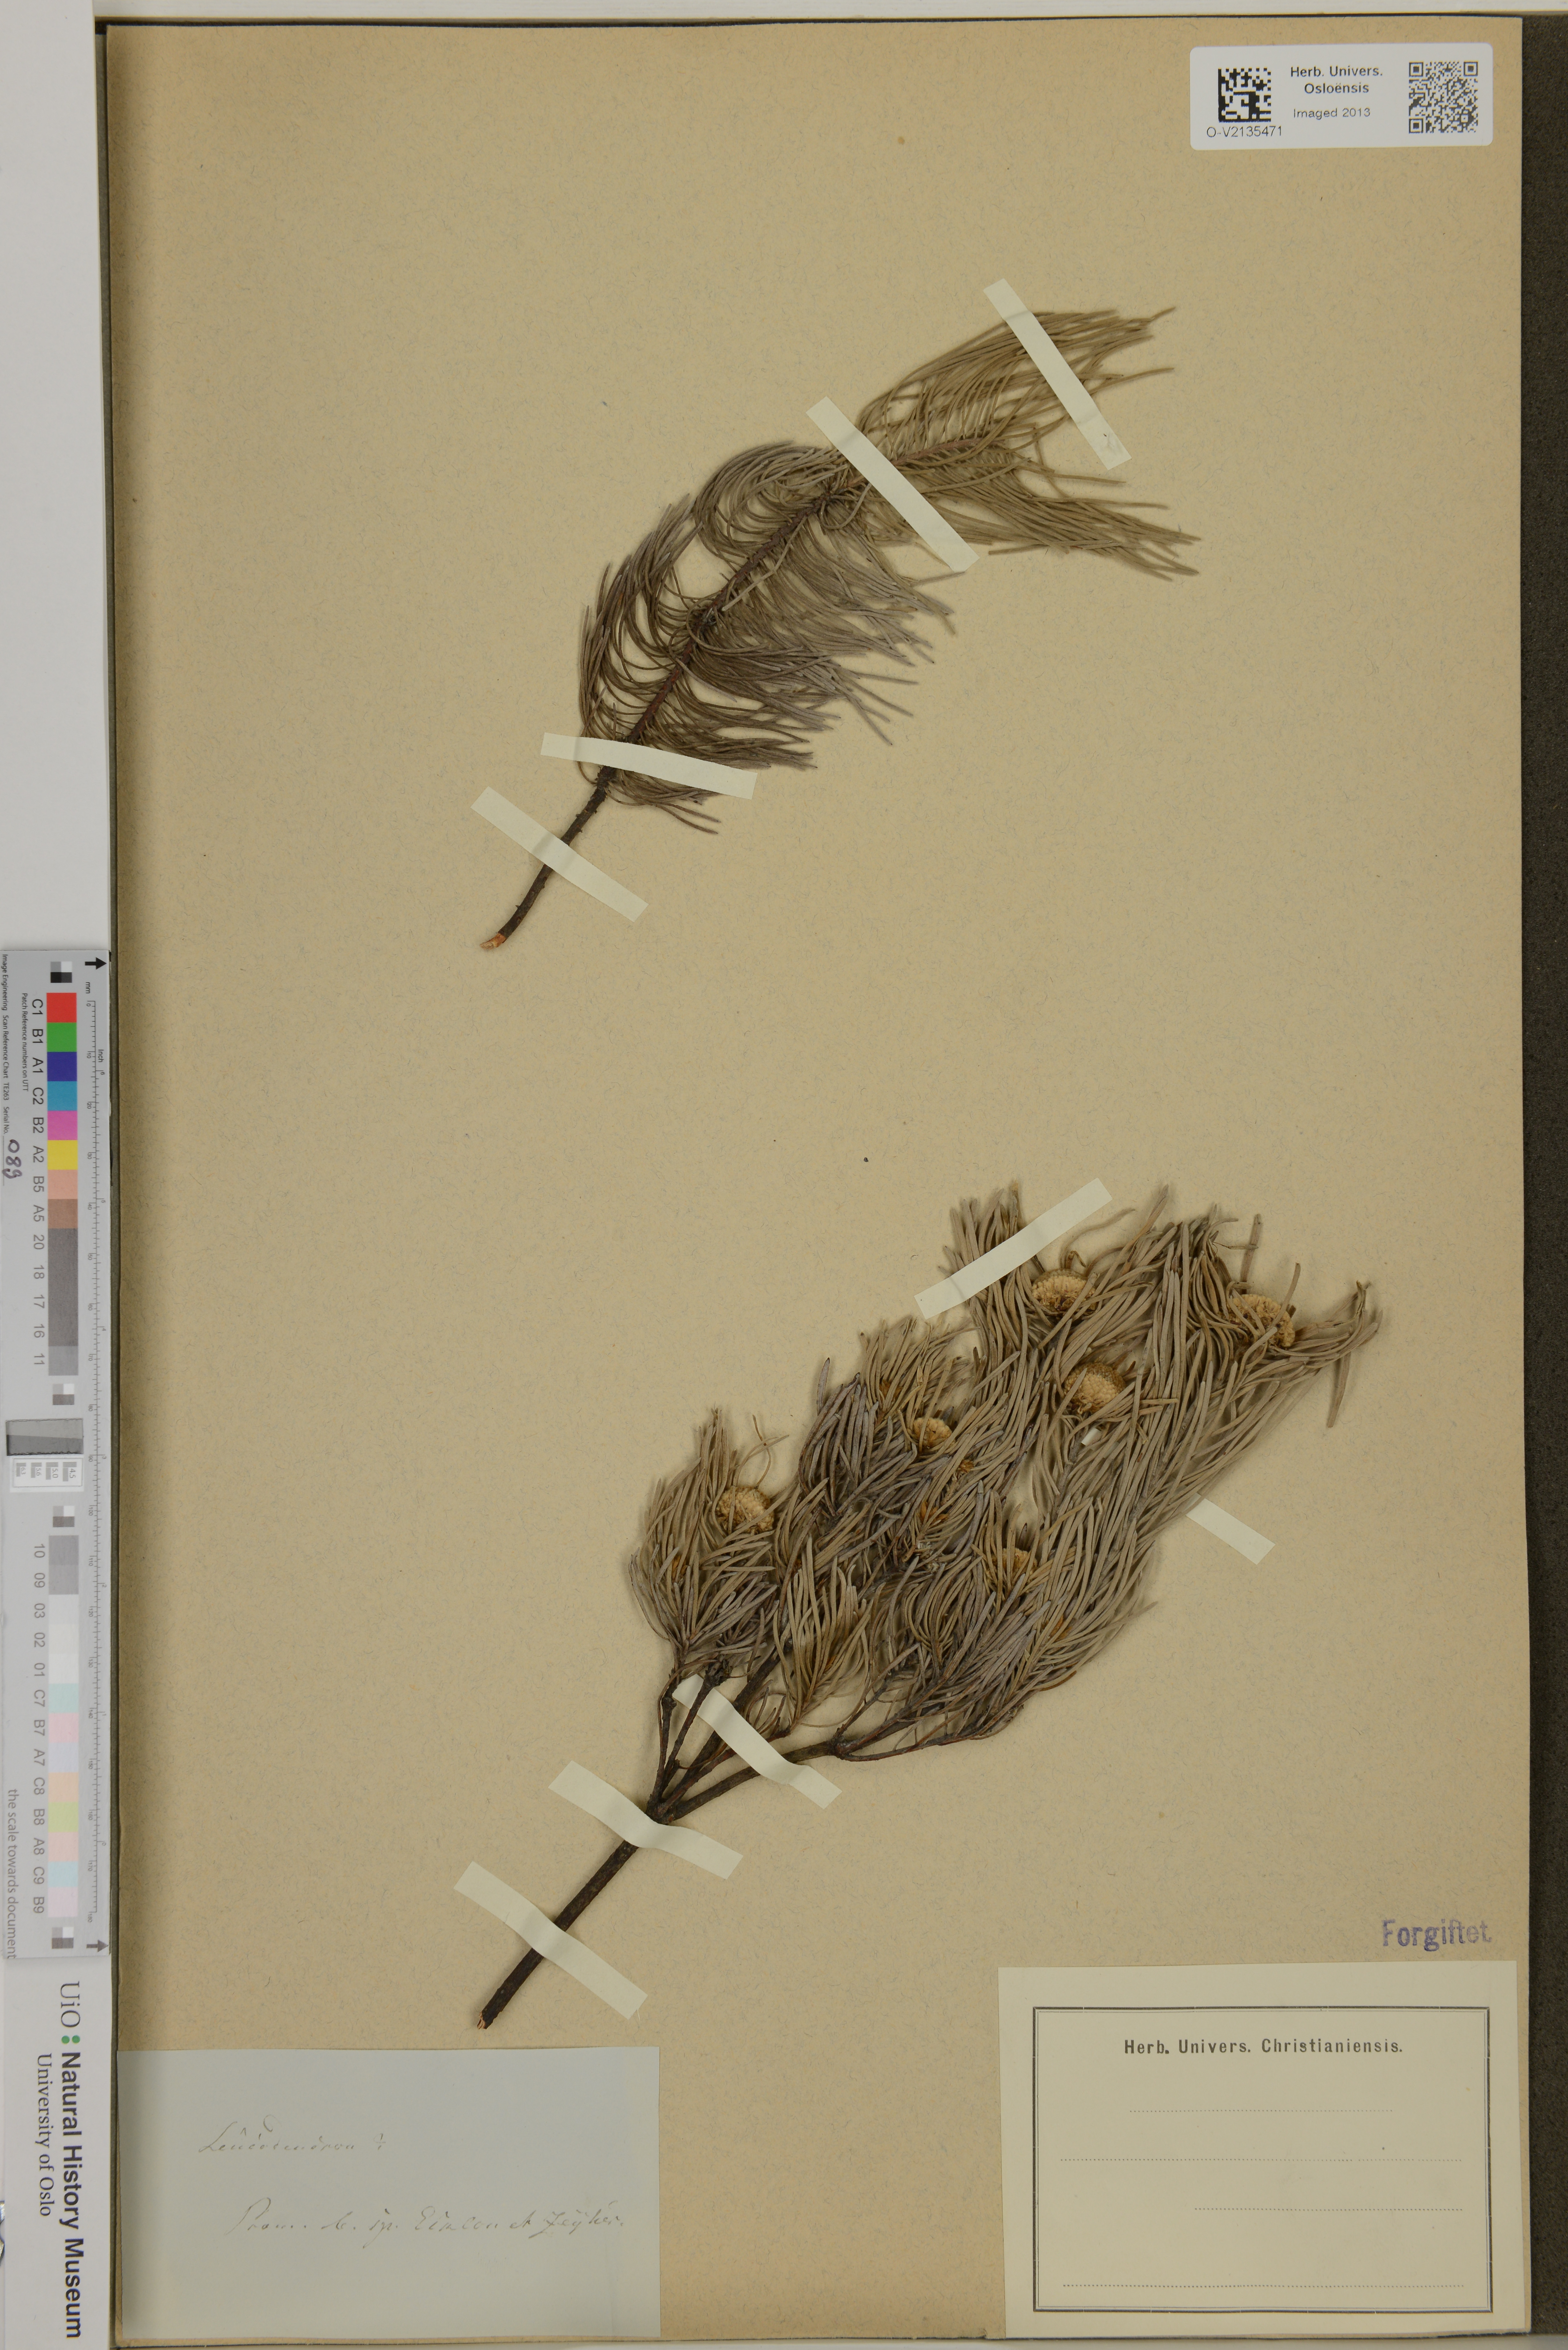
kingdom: Plantae
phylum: Tracheophyta
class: Magnoliopsida
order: Proteales
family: Proteaceae
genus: Leucadendron
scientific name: Leucadendron
